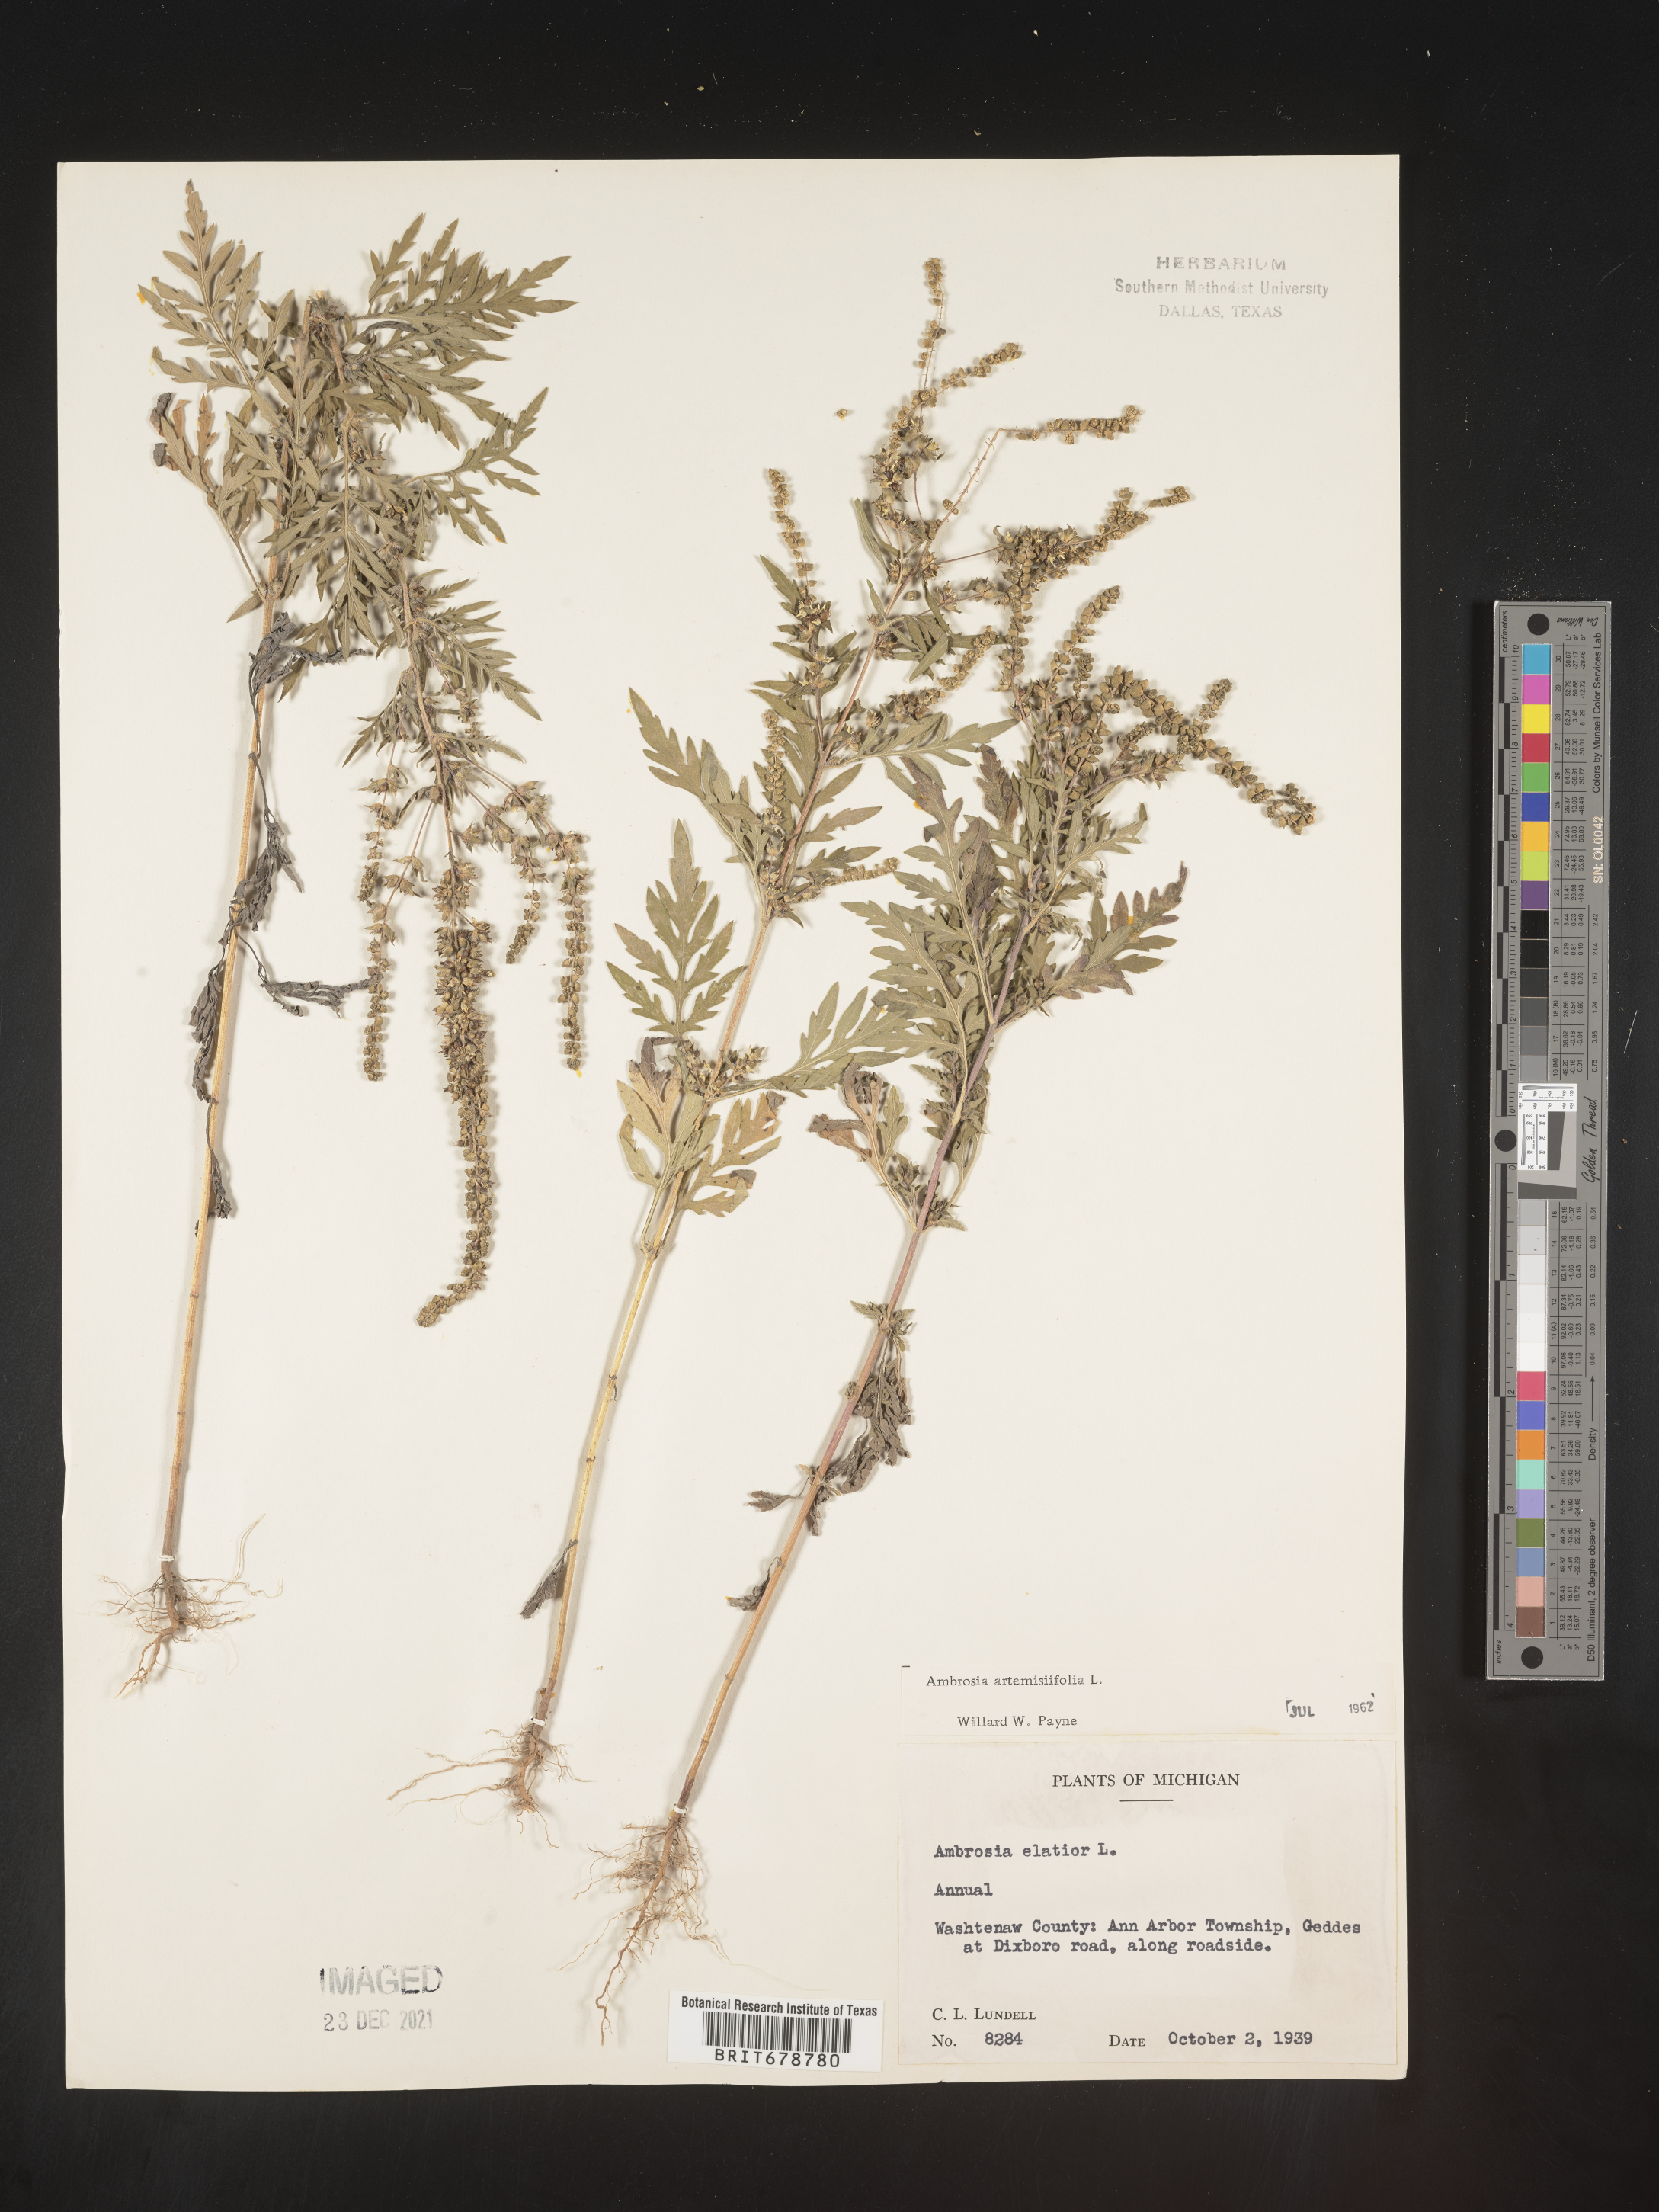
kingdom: Plantae
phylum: Tracheophyta
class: Magnoliopsida
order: Asterales
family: Asteraceae
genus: Ambrosia
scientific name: Ambrosia artemisiifolia
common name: Annual ragweed
